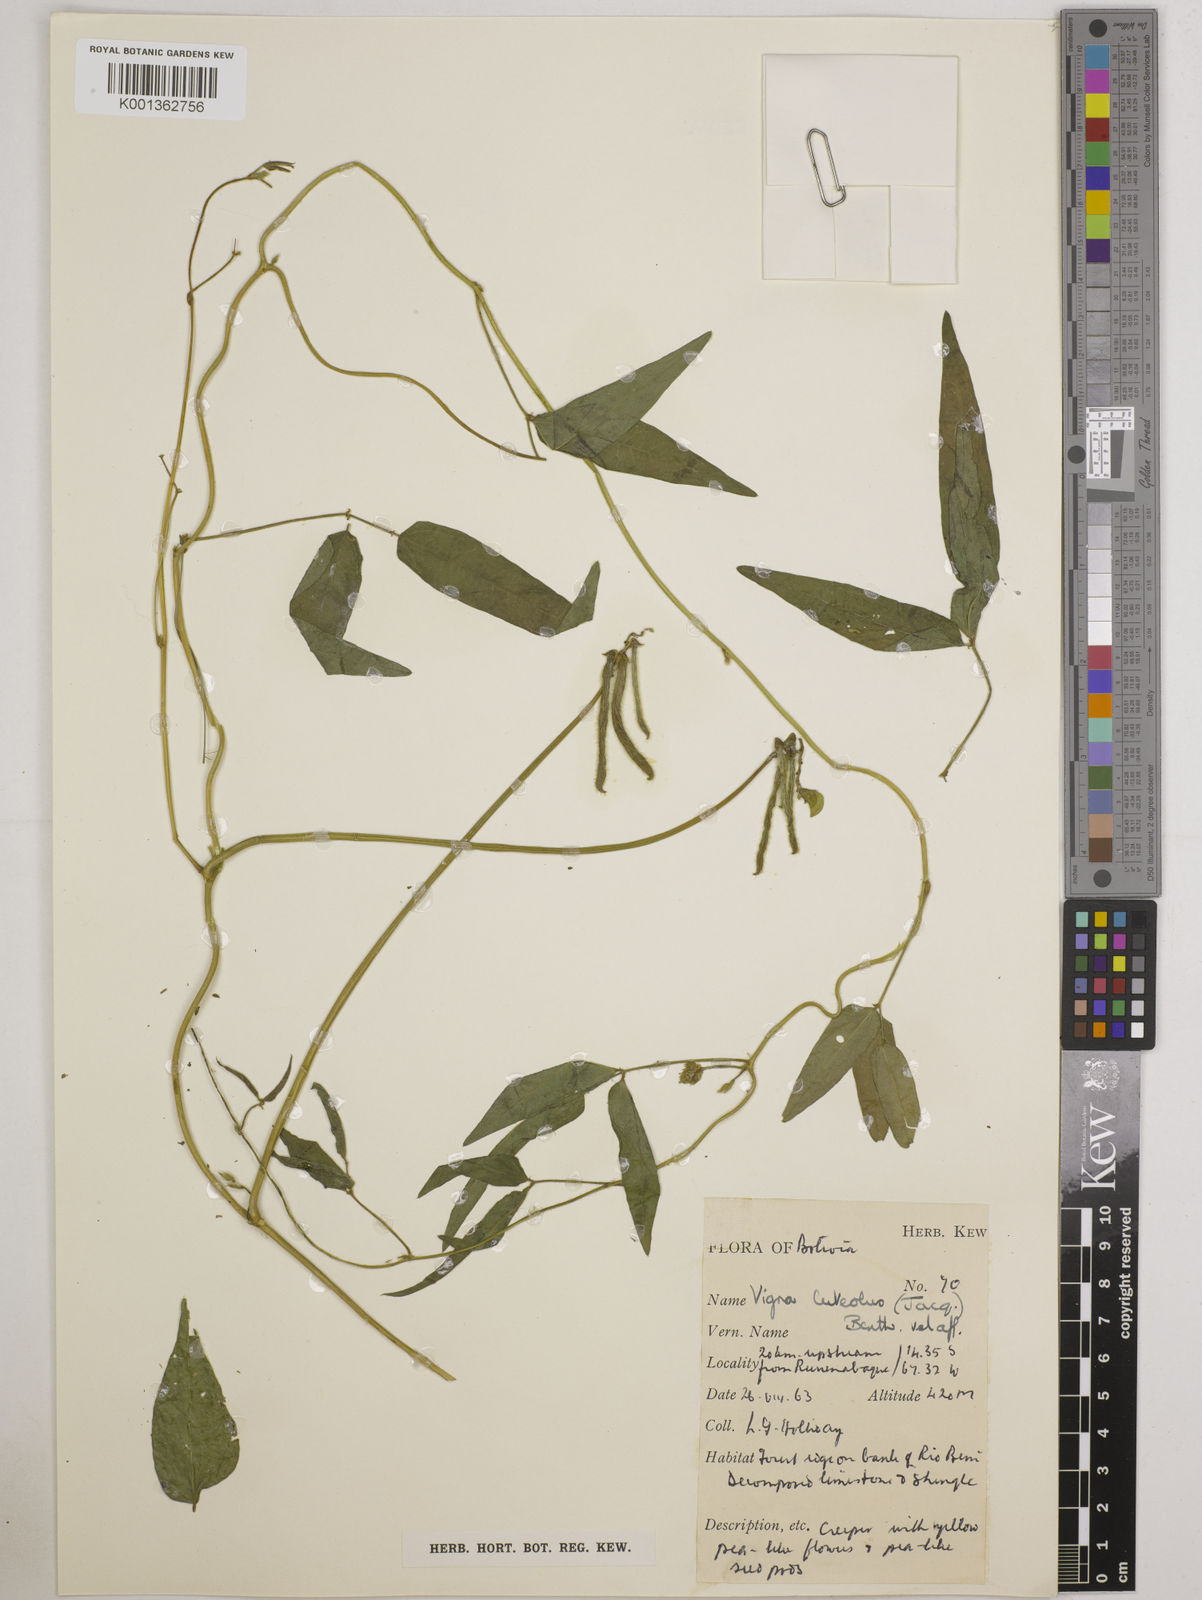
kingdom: Plantae
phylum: Tracheophyta
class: Magnoliopsida
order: Fabales
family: Fabaceae
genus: Vigna
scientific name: Vigna luteola
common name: Hairypod cowpea
